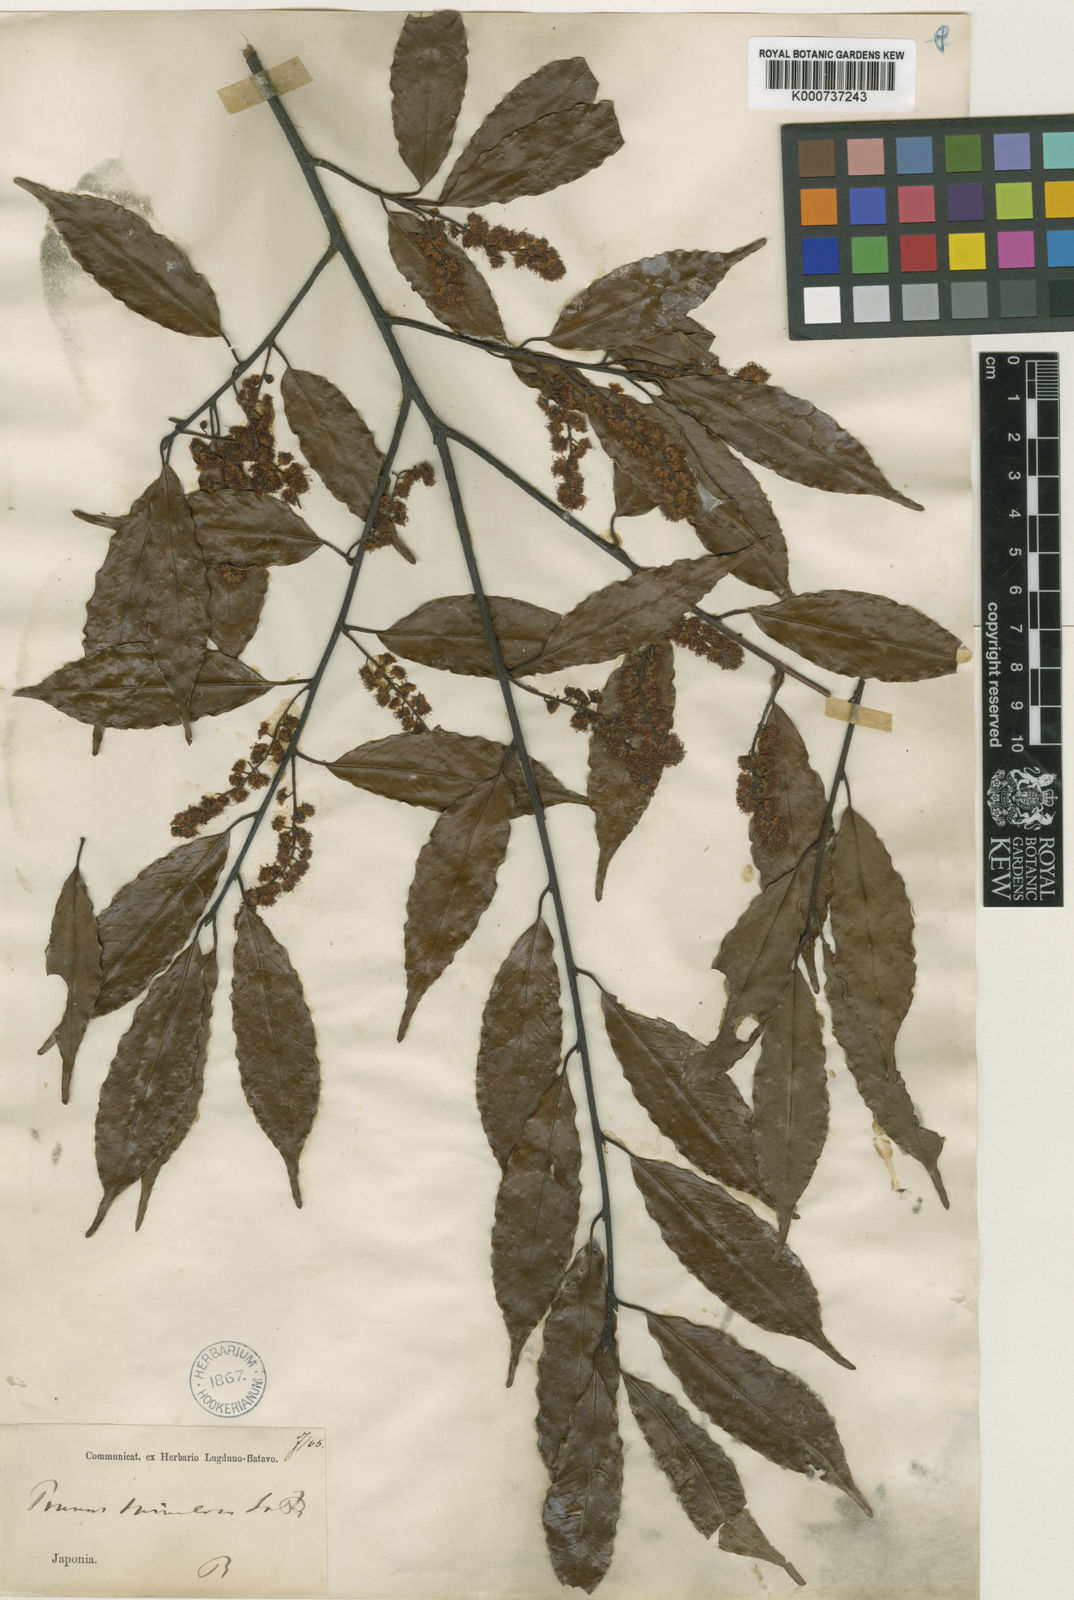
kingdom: Plantae
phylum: Tracheophyta
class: Magnoliopsida
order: Rosales
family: Rosaceae
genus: Prunus
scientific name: Prunus spinulosa
